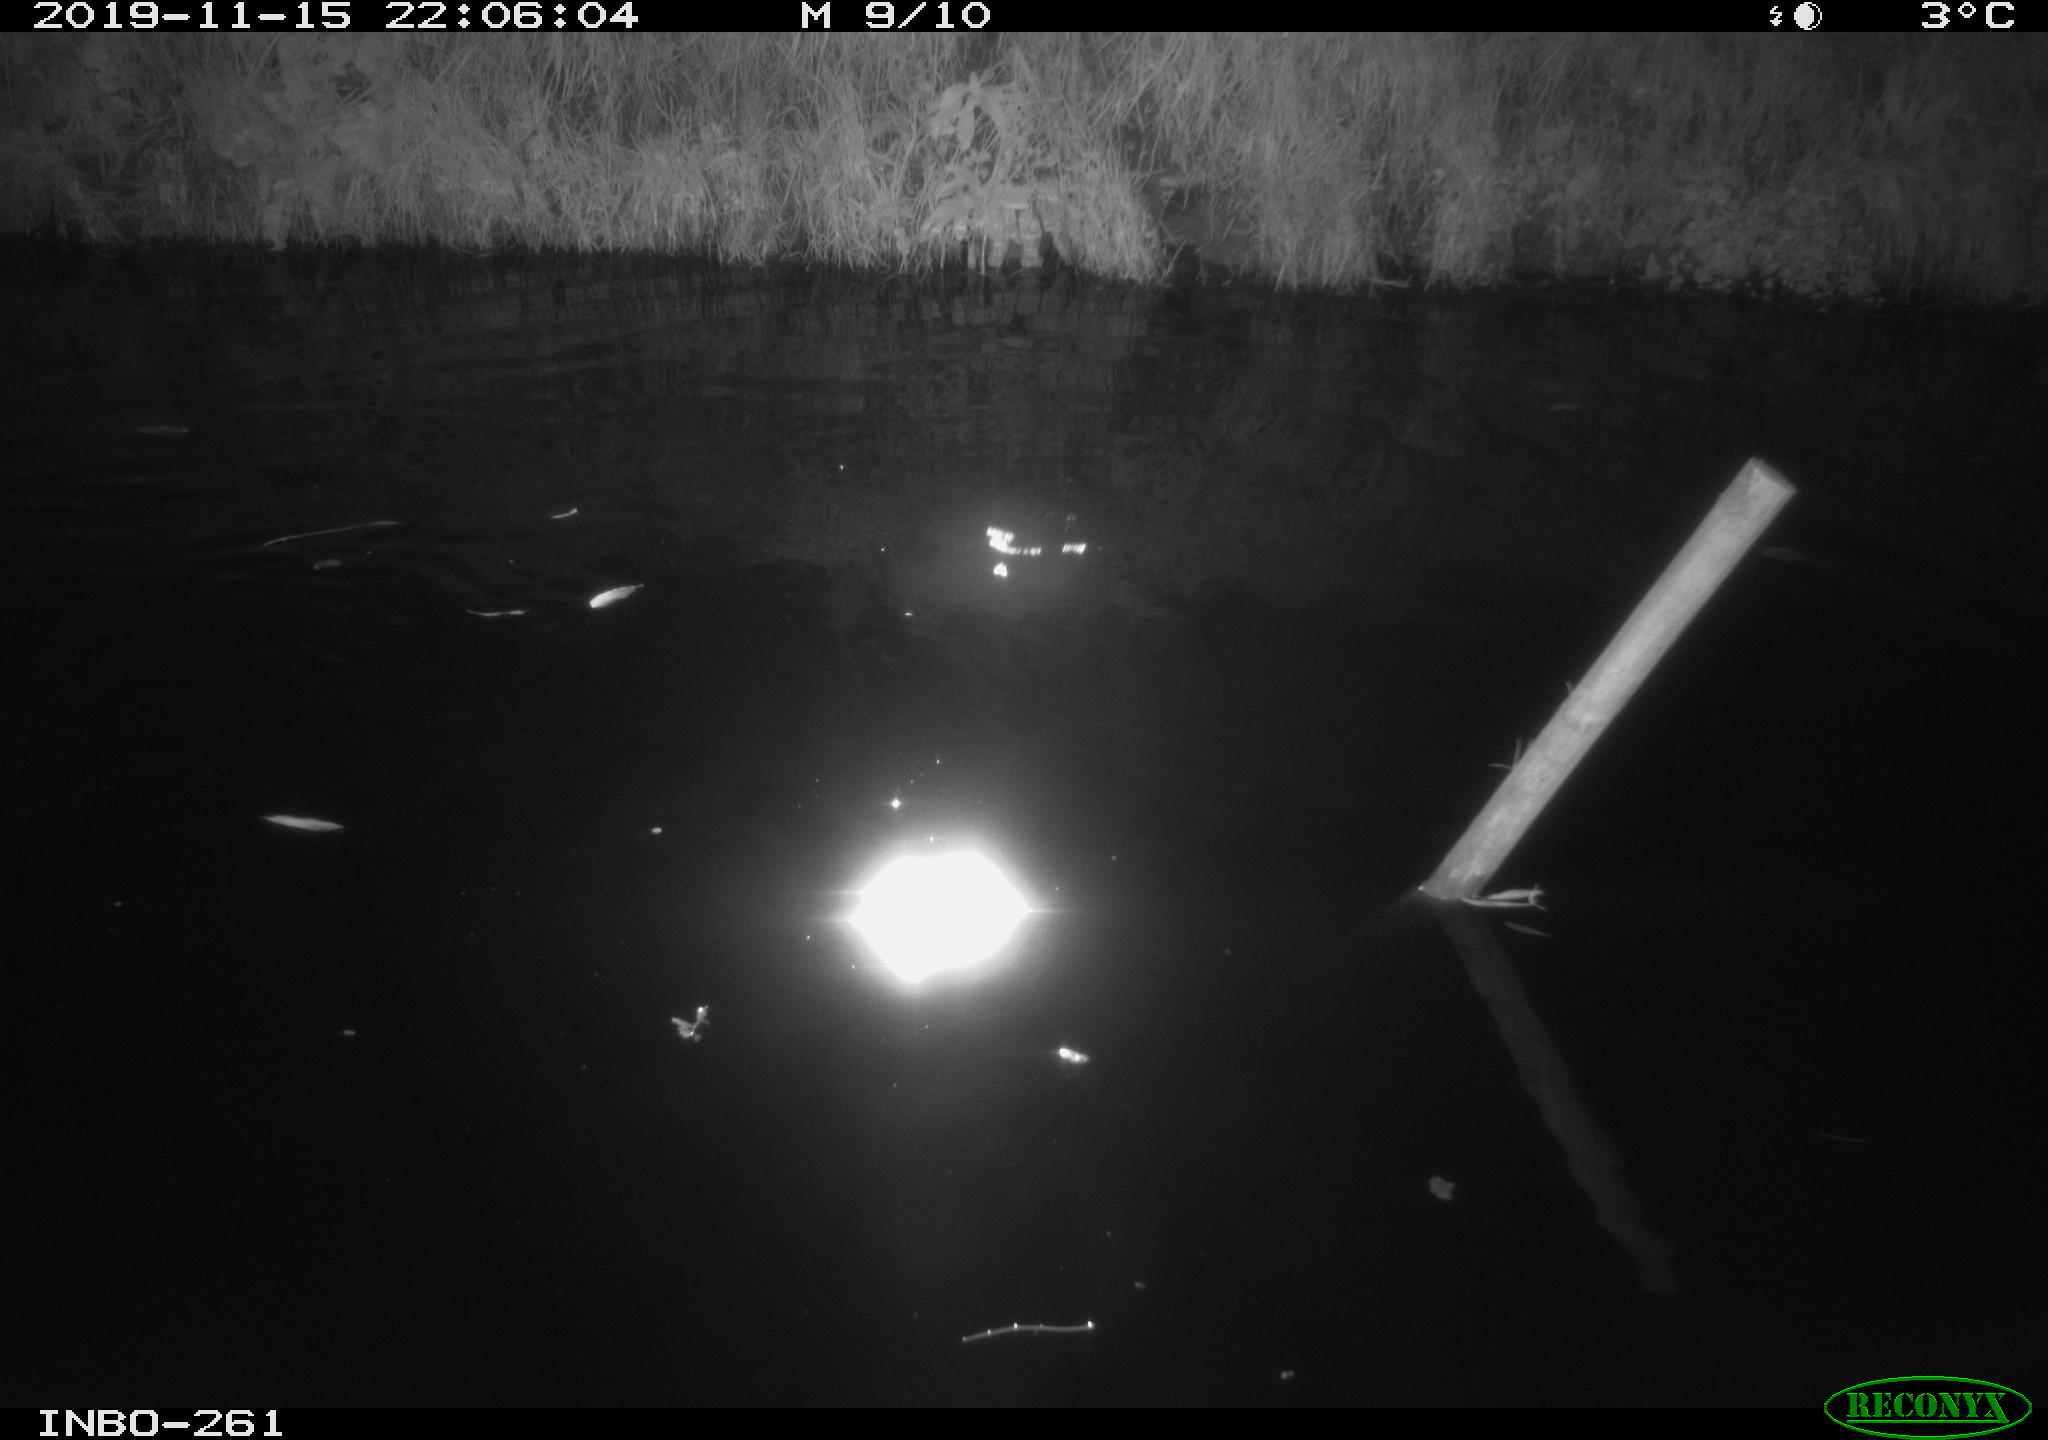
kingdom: Animalia
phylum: Chordata
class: Aves
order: Anseriformes
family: Anatidae
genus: Anas
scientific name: Anas platyrhynchos
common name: Mallard
